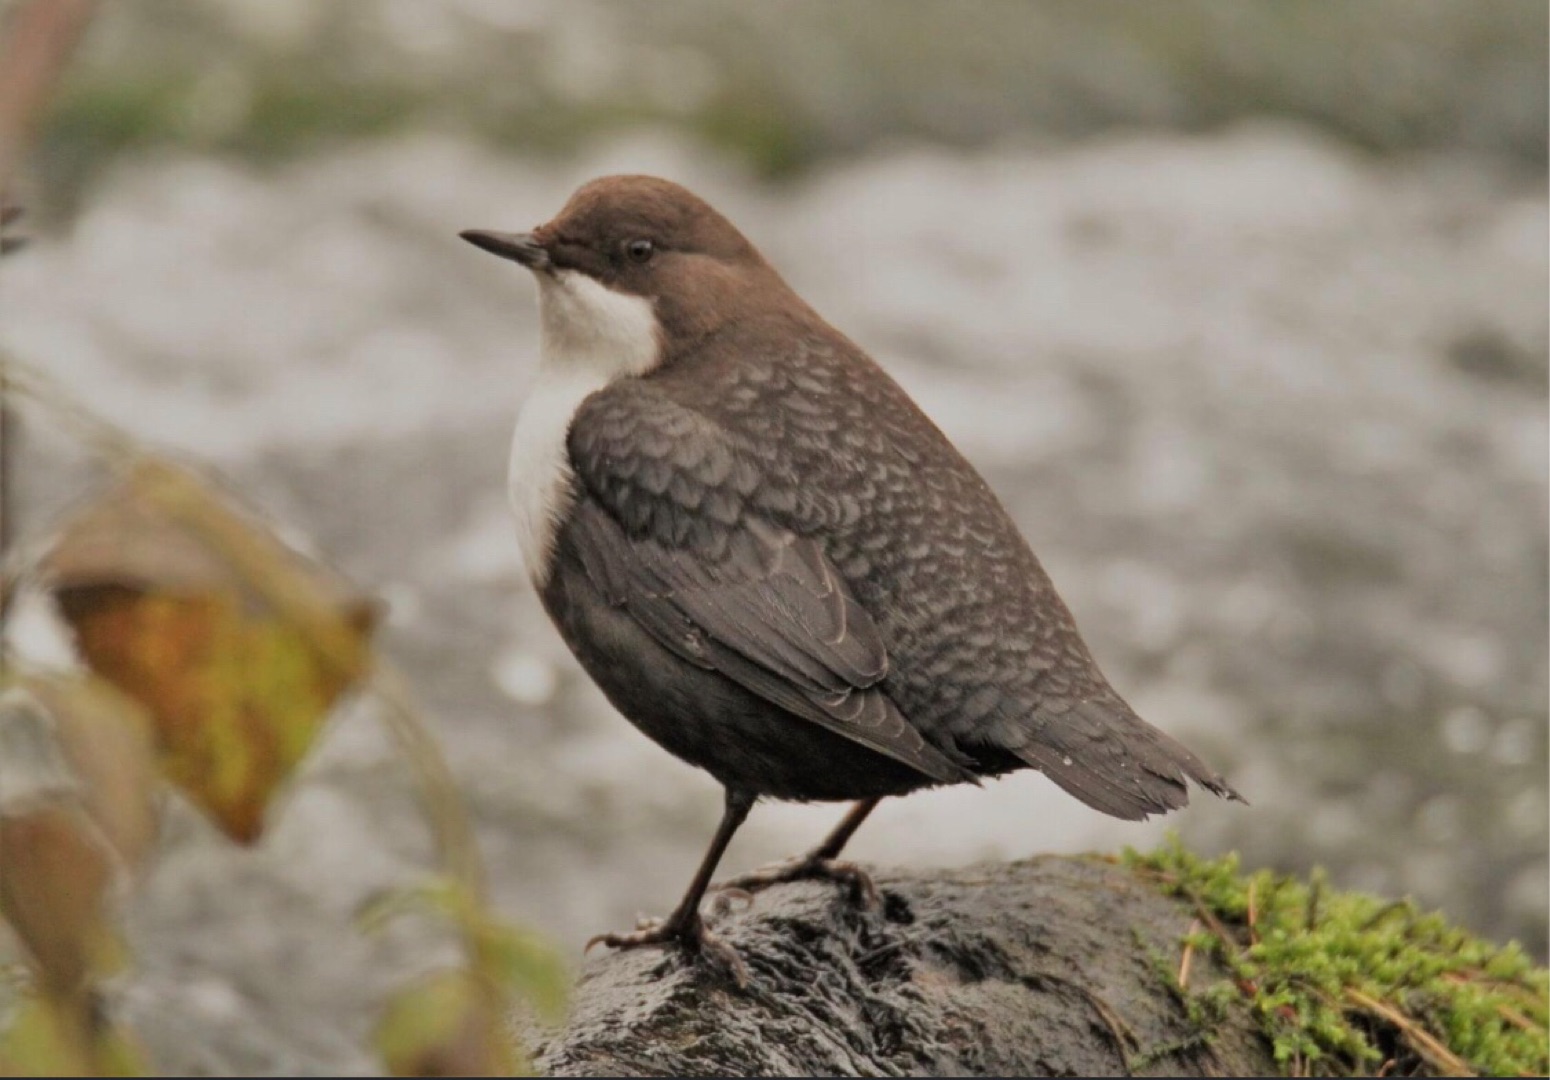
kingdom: Animalia
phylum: Chordata
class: Aves
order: Passeriformes
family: Cinclidae
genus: Cinclus
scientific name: Cinclus cinclus
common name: Vandstær
